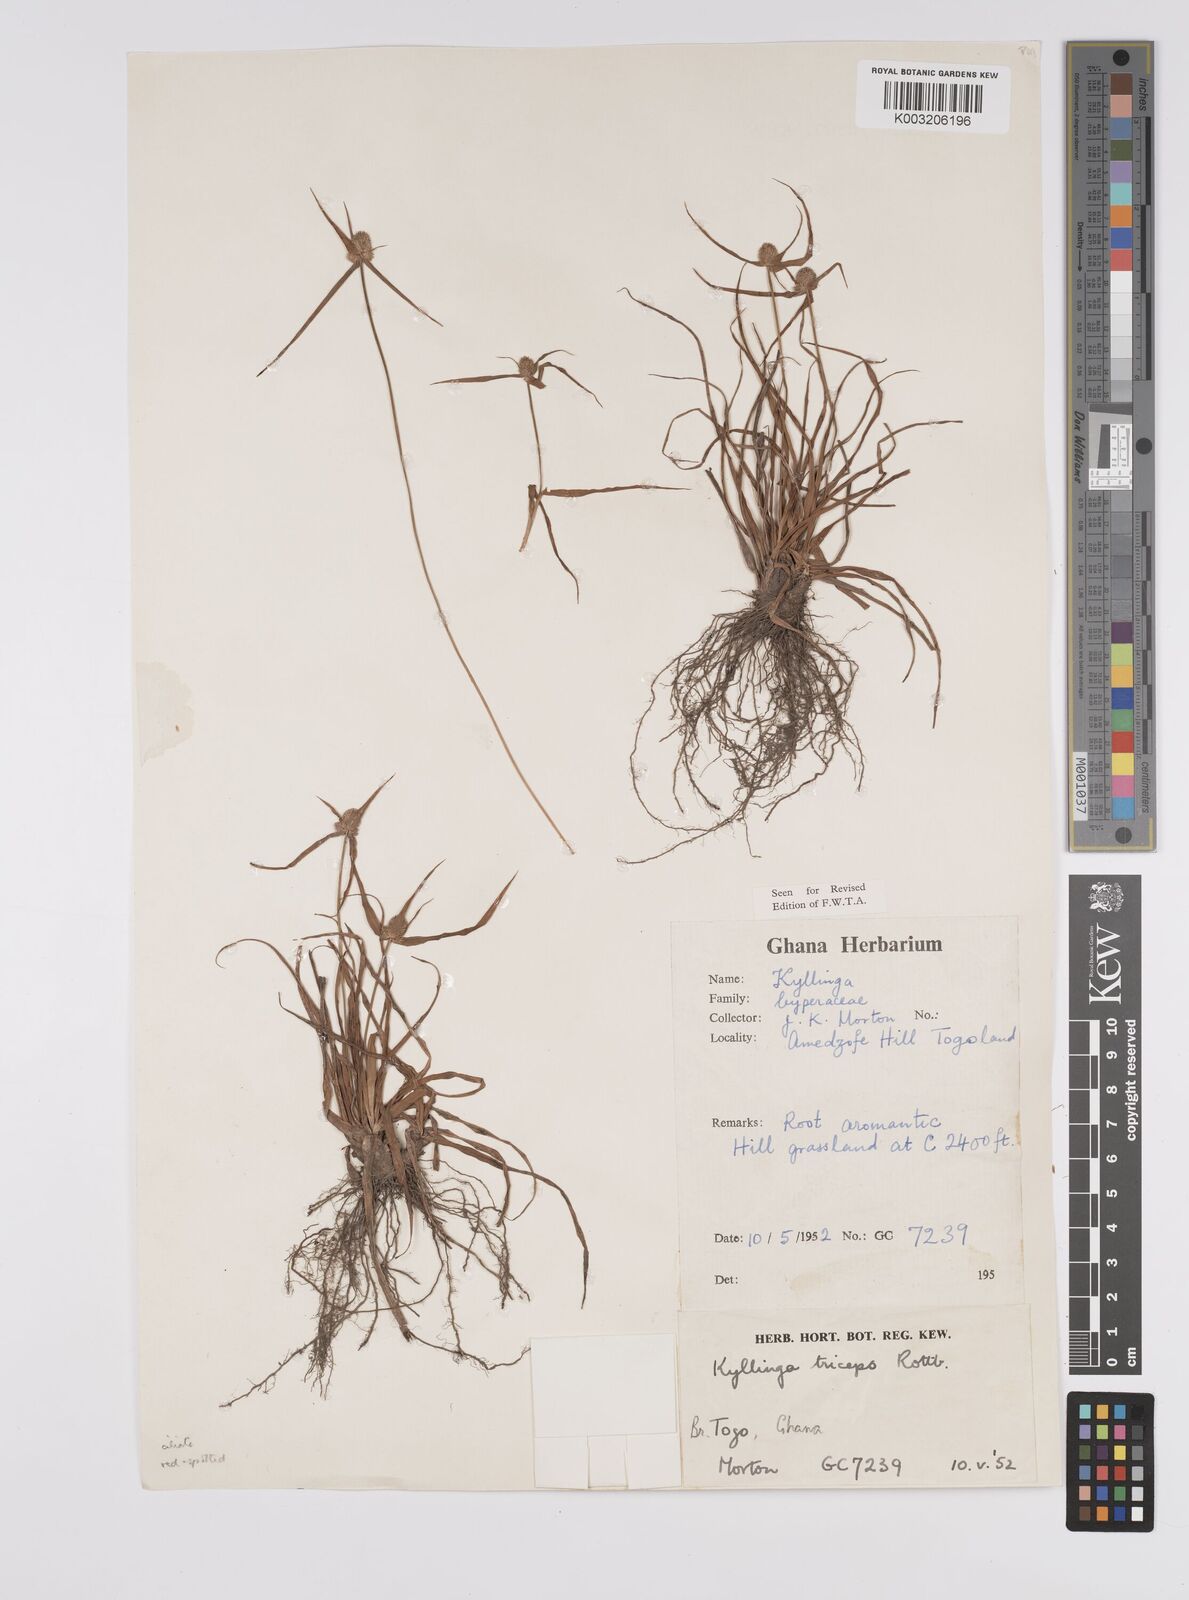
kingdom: Plantae
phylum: Tracheophyta
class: Liliopsida
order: Poales
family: Cyperaceae
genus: Cyperus
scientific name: Cyperus
